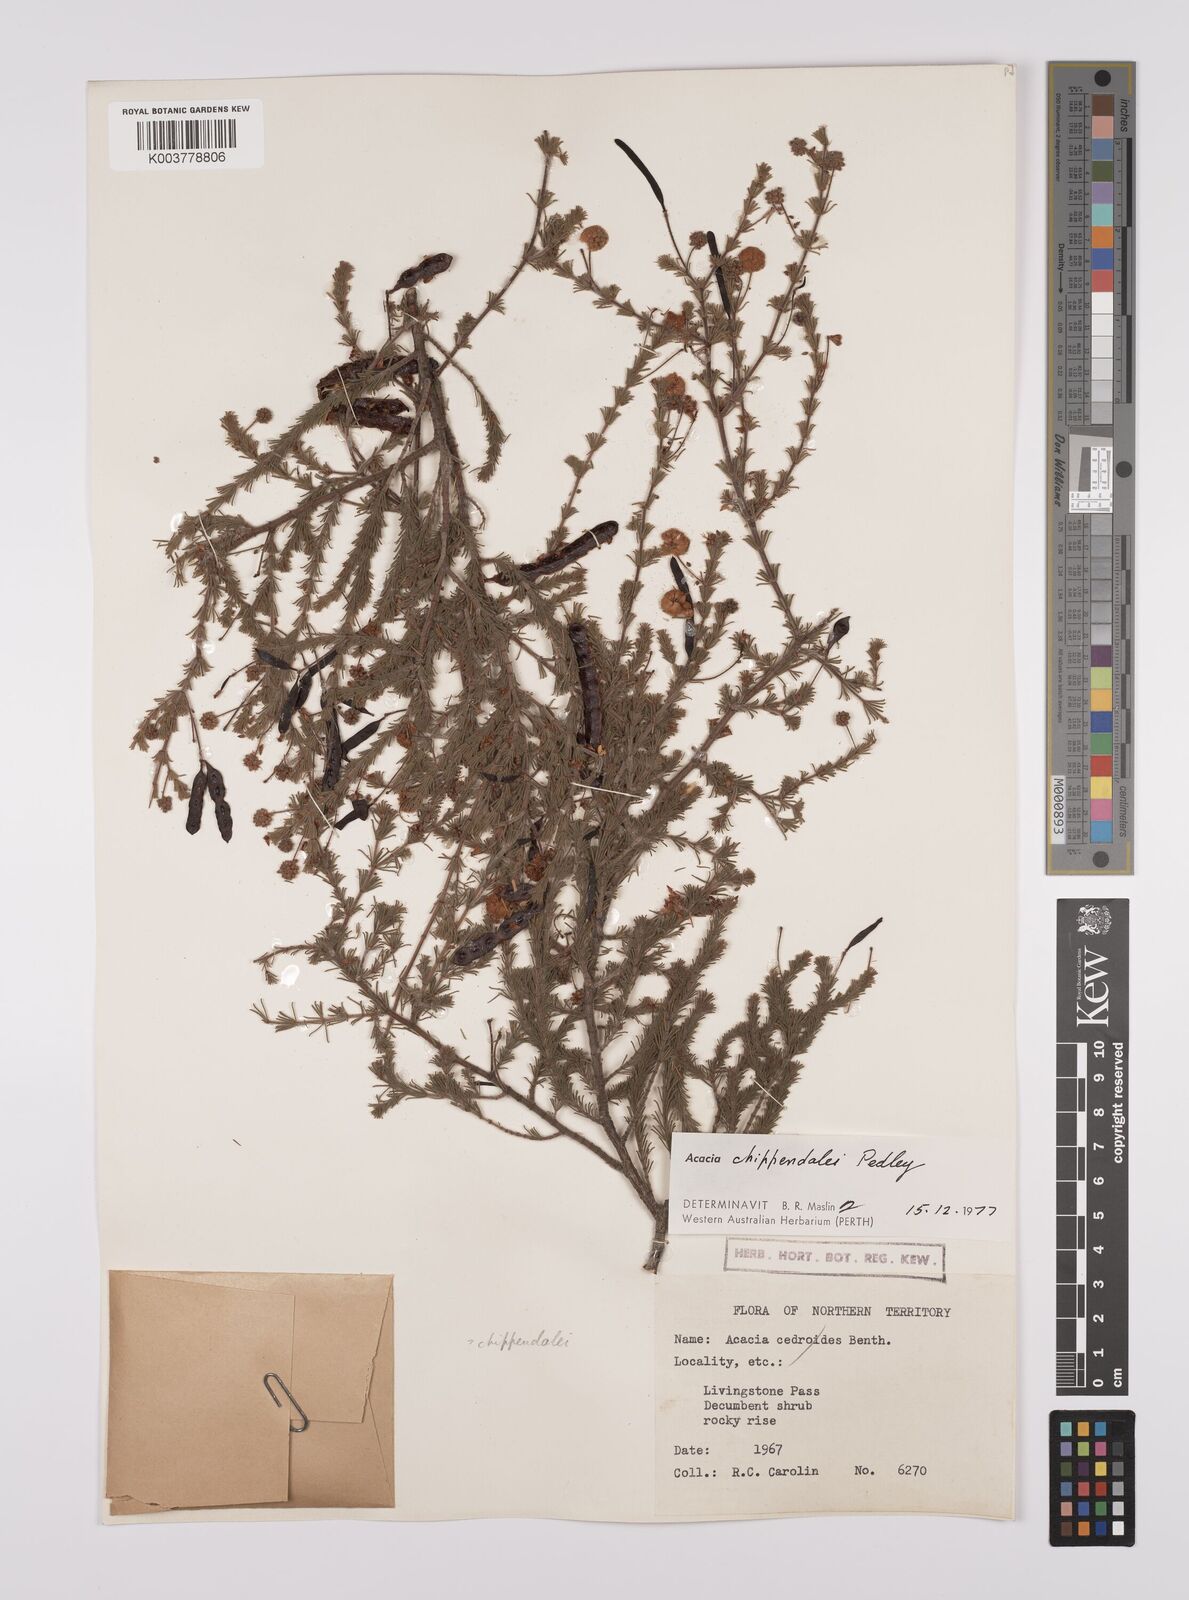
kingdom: Plantae
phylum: Tracheophyta
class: Magnoliopsida
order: Fabales
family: Fabaceae
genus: Acacia
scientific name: Acacia chippendalei
